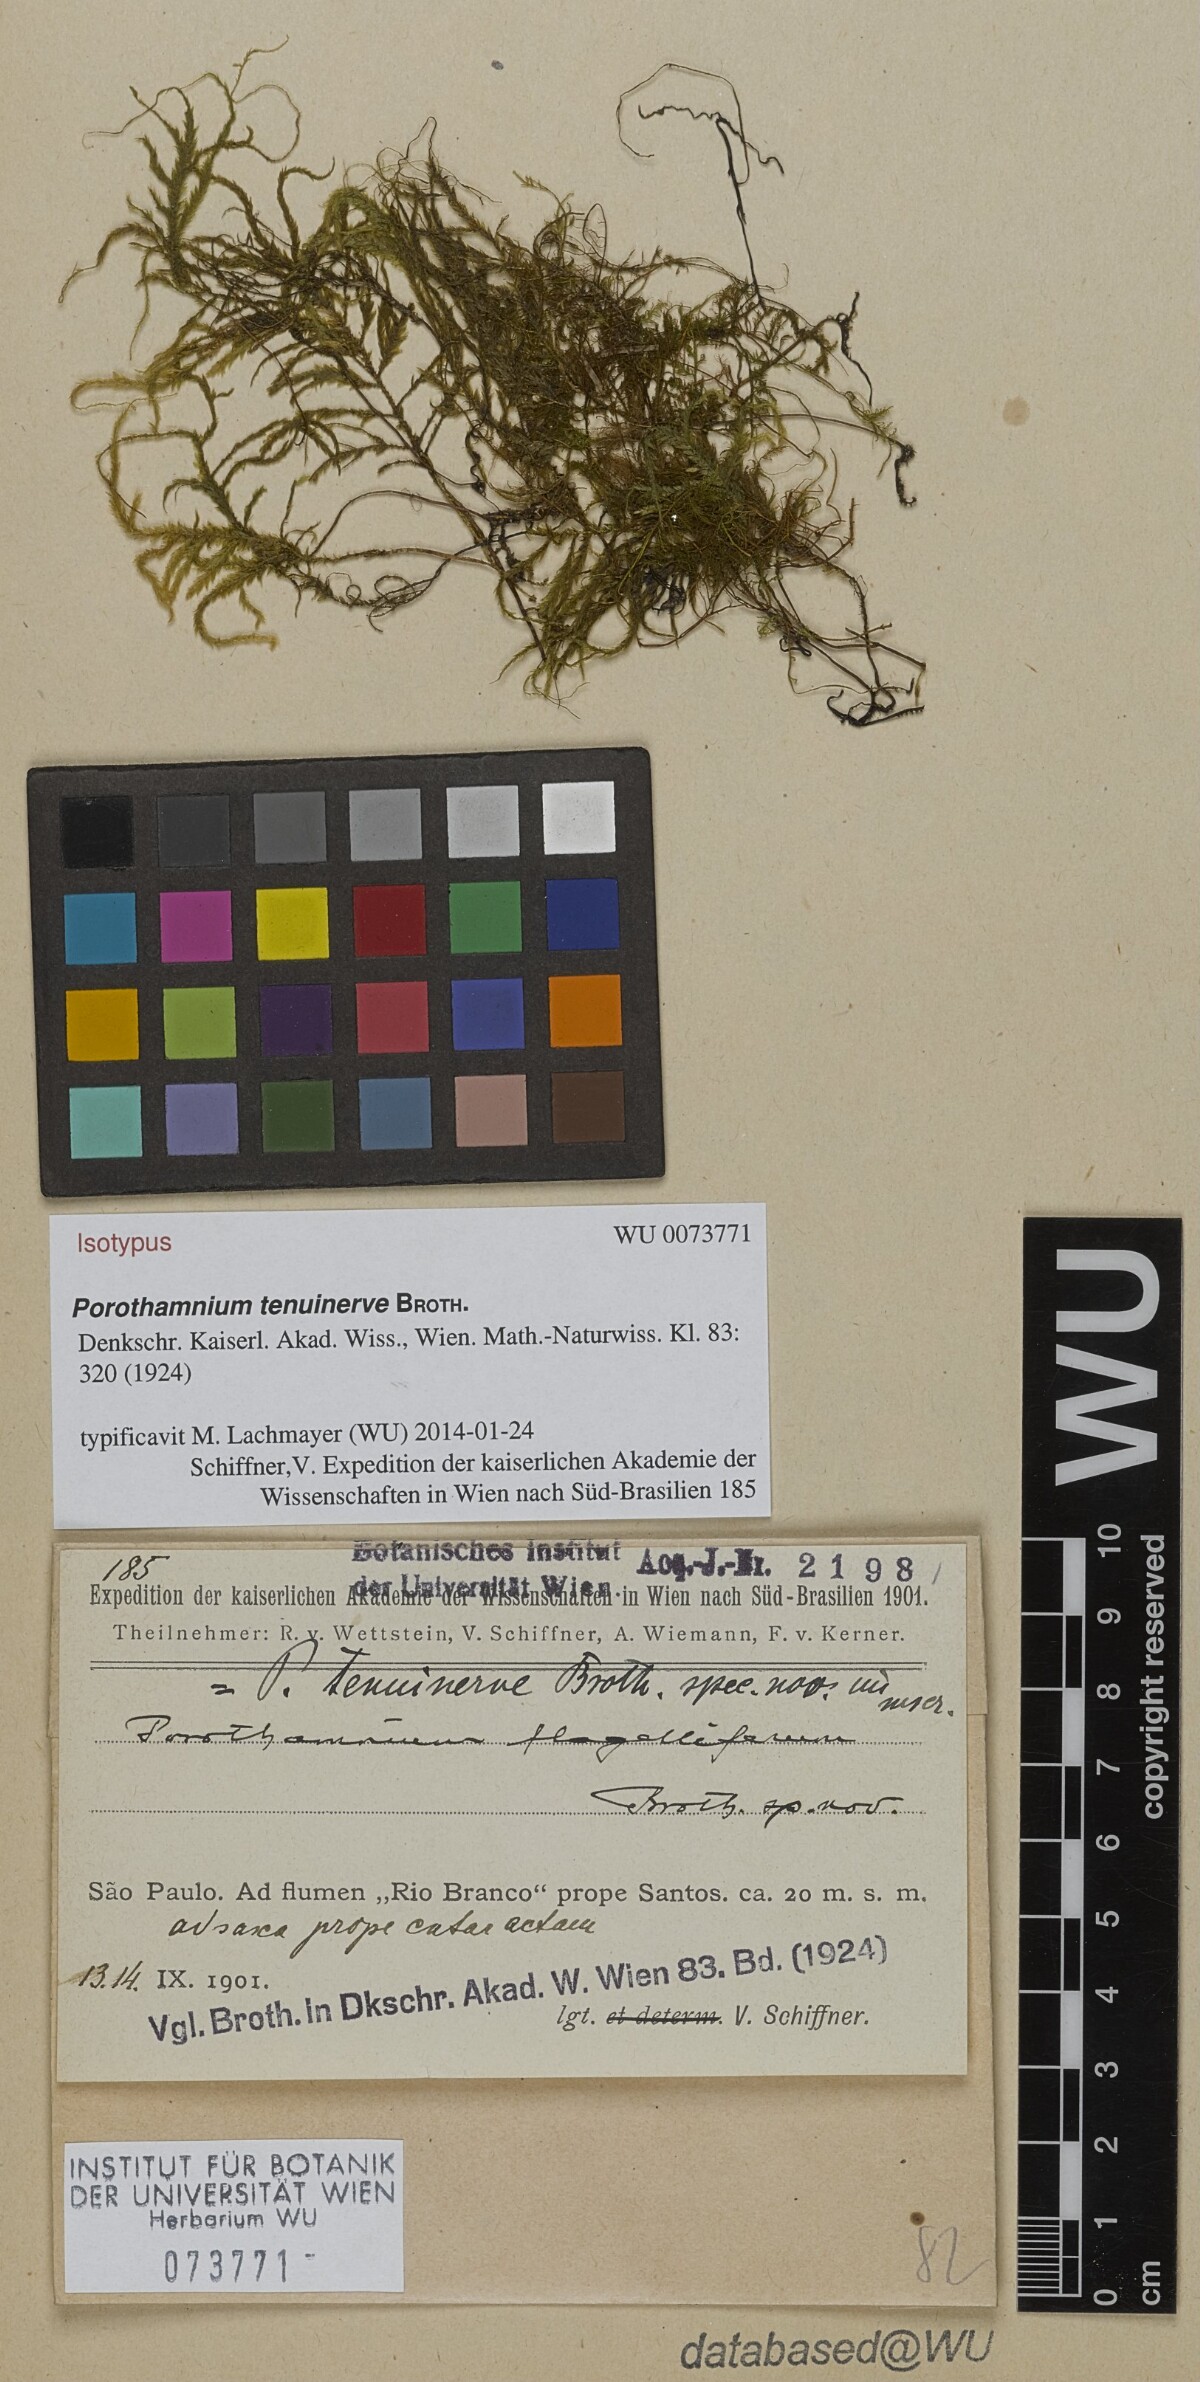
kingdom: Plantae
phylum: Bryophyta
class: Bryopsida
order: Hypnales
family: Neckeraceae
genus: Porotrichum
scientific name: Porotrichum brasiliense
